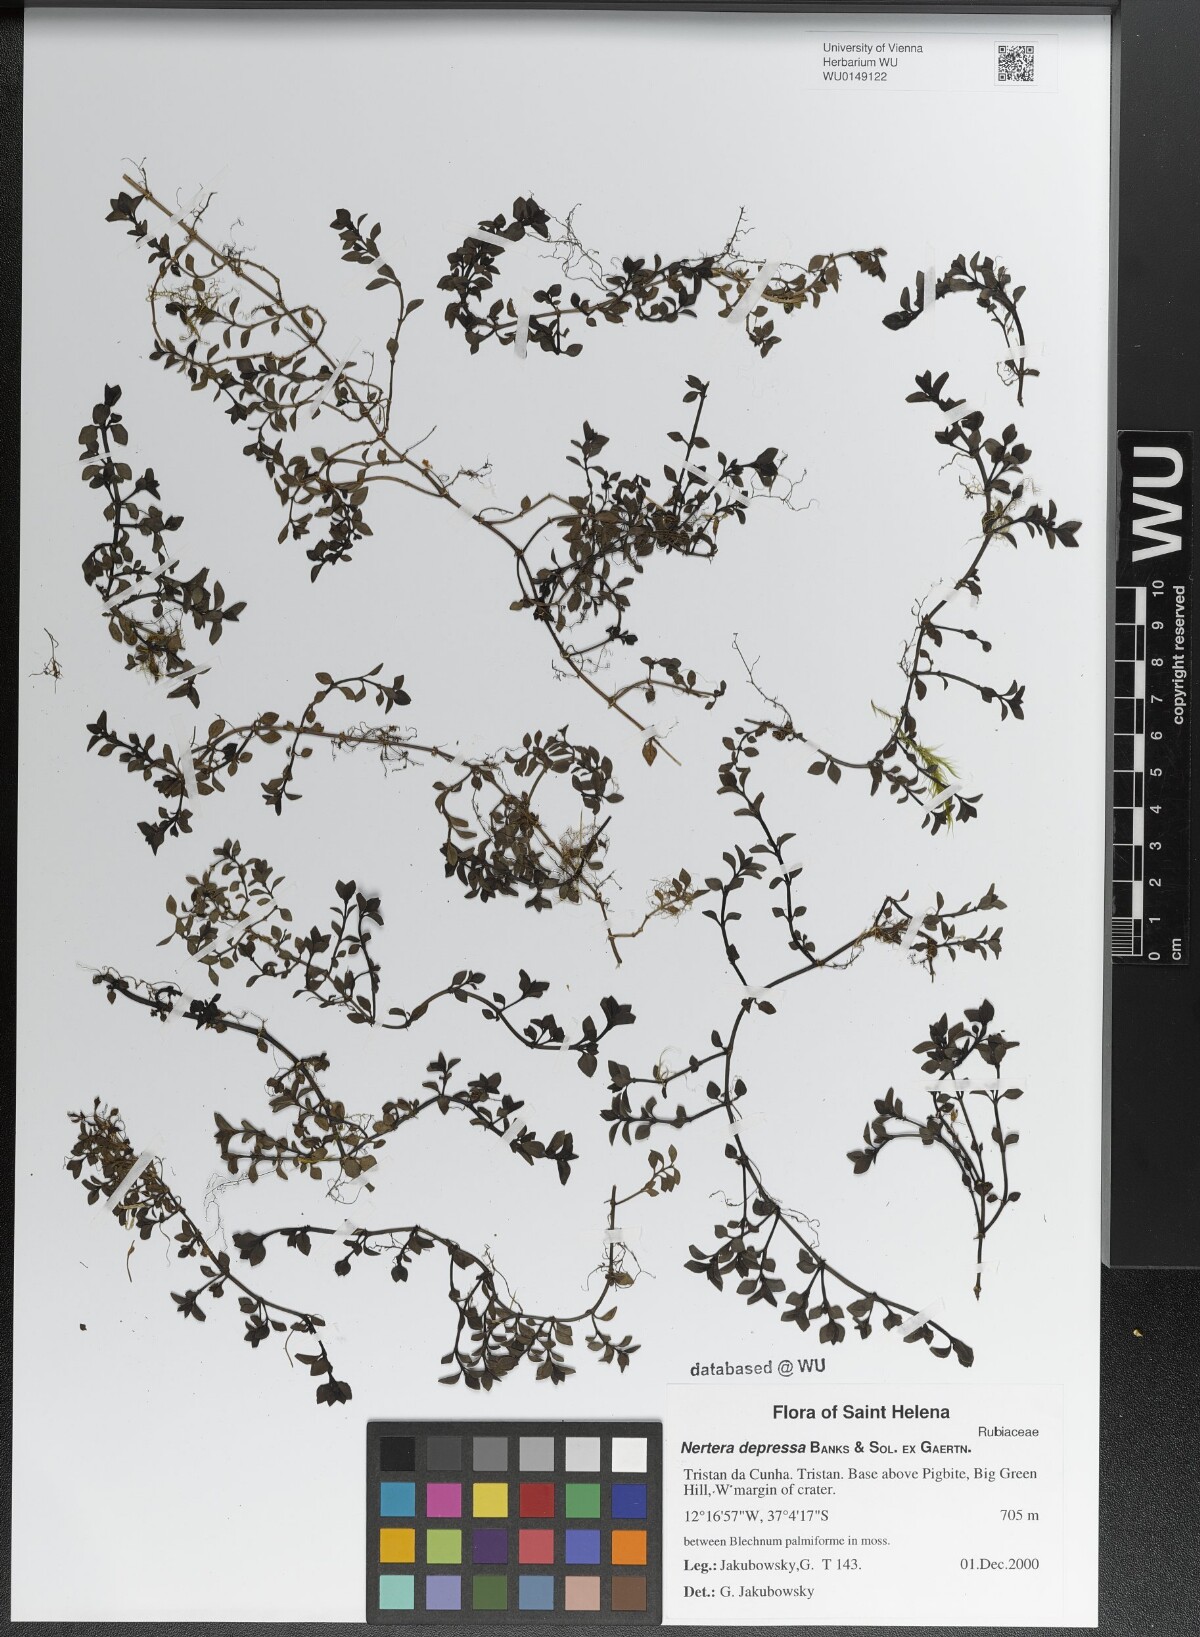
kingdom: Plantae
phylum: Tracheophyta
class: Magnoliopsida
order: Gentianales
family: Rubiaceae
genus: Nertera
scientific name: Nertera granadensis
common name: Beadplant
